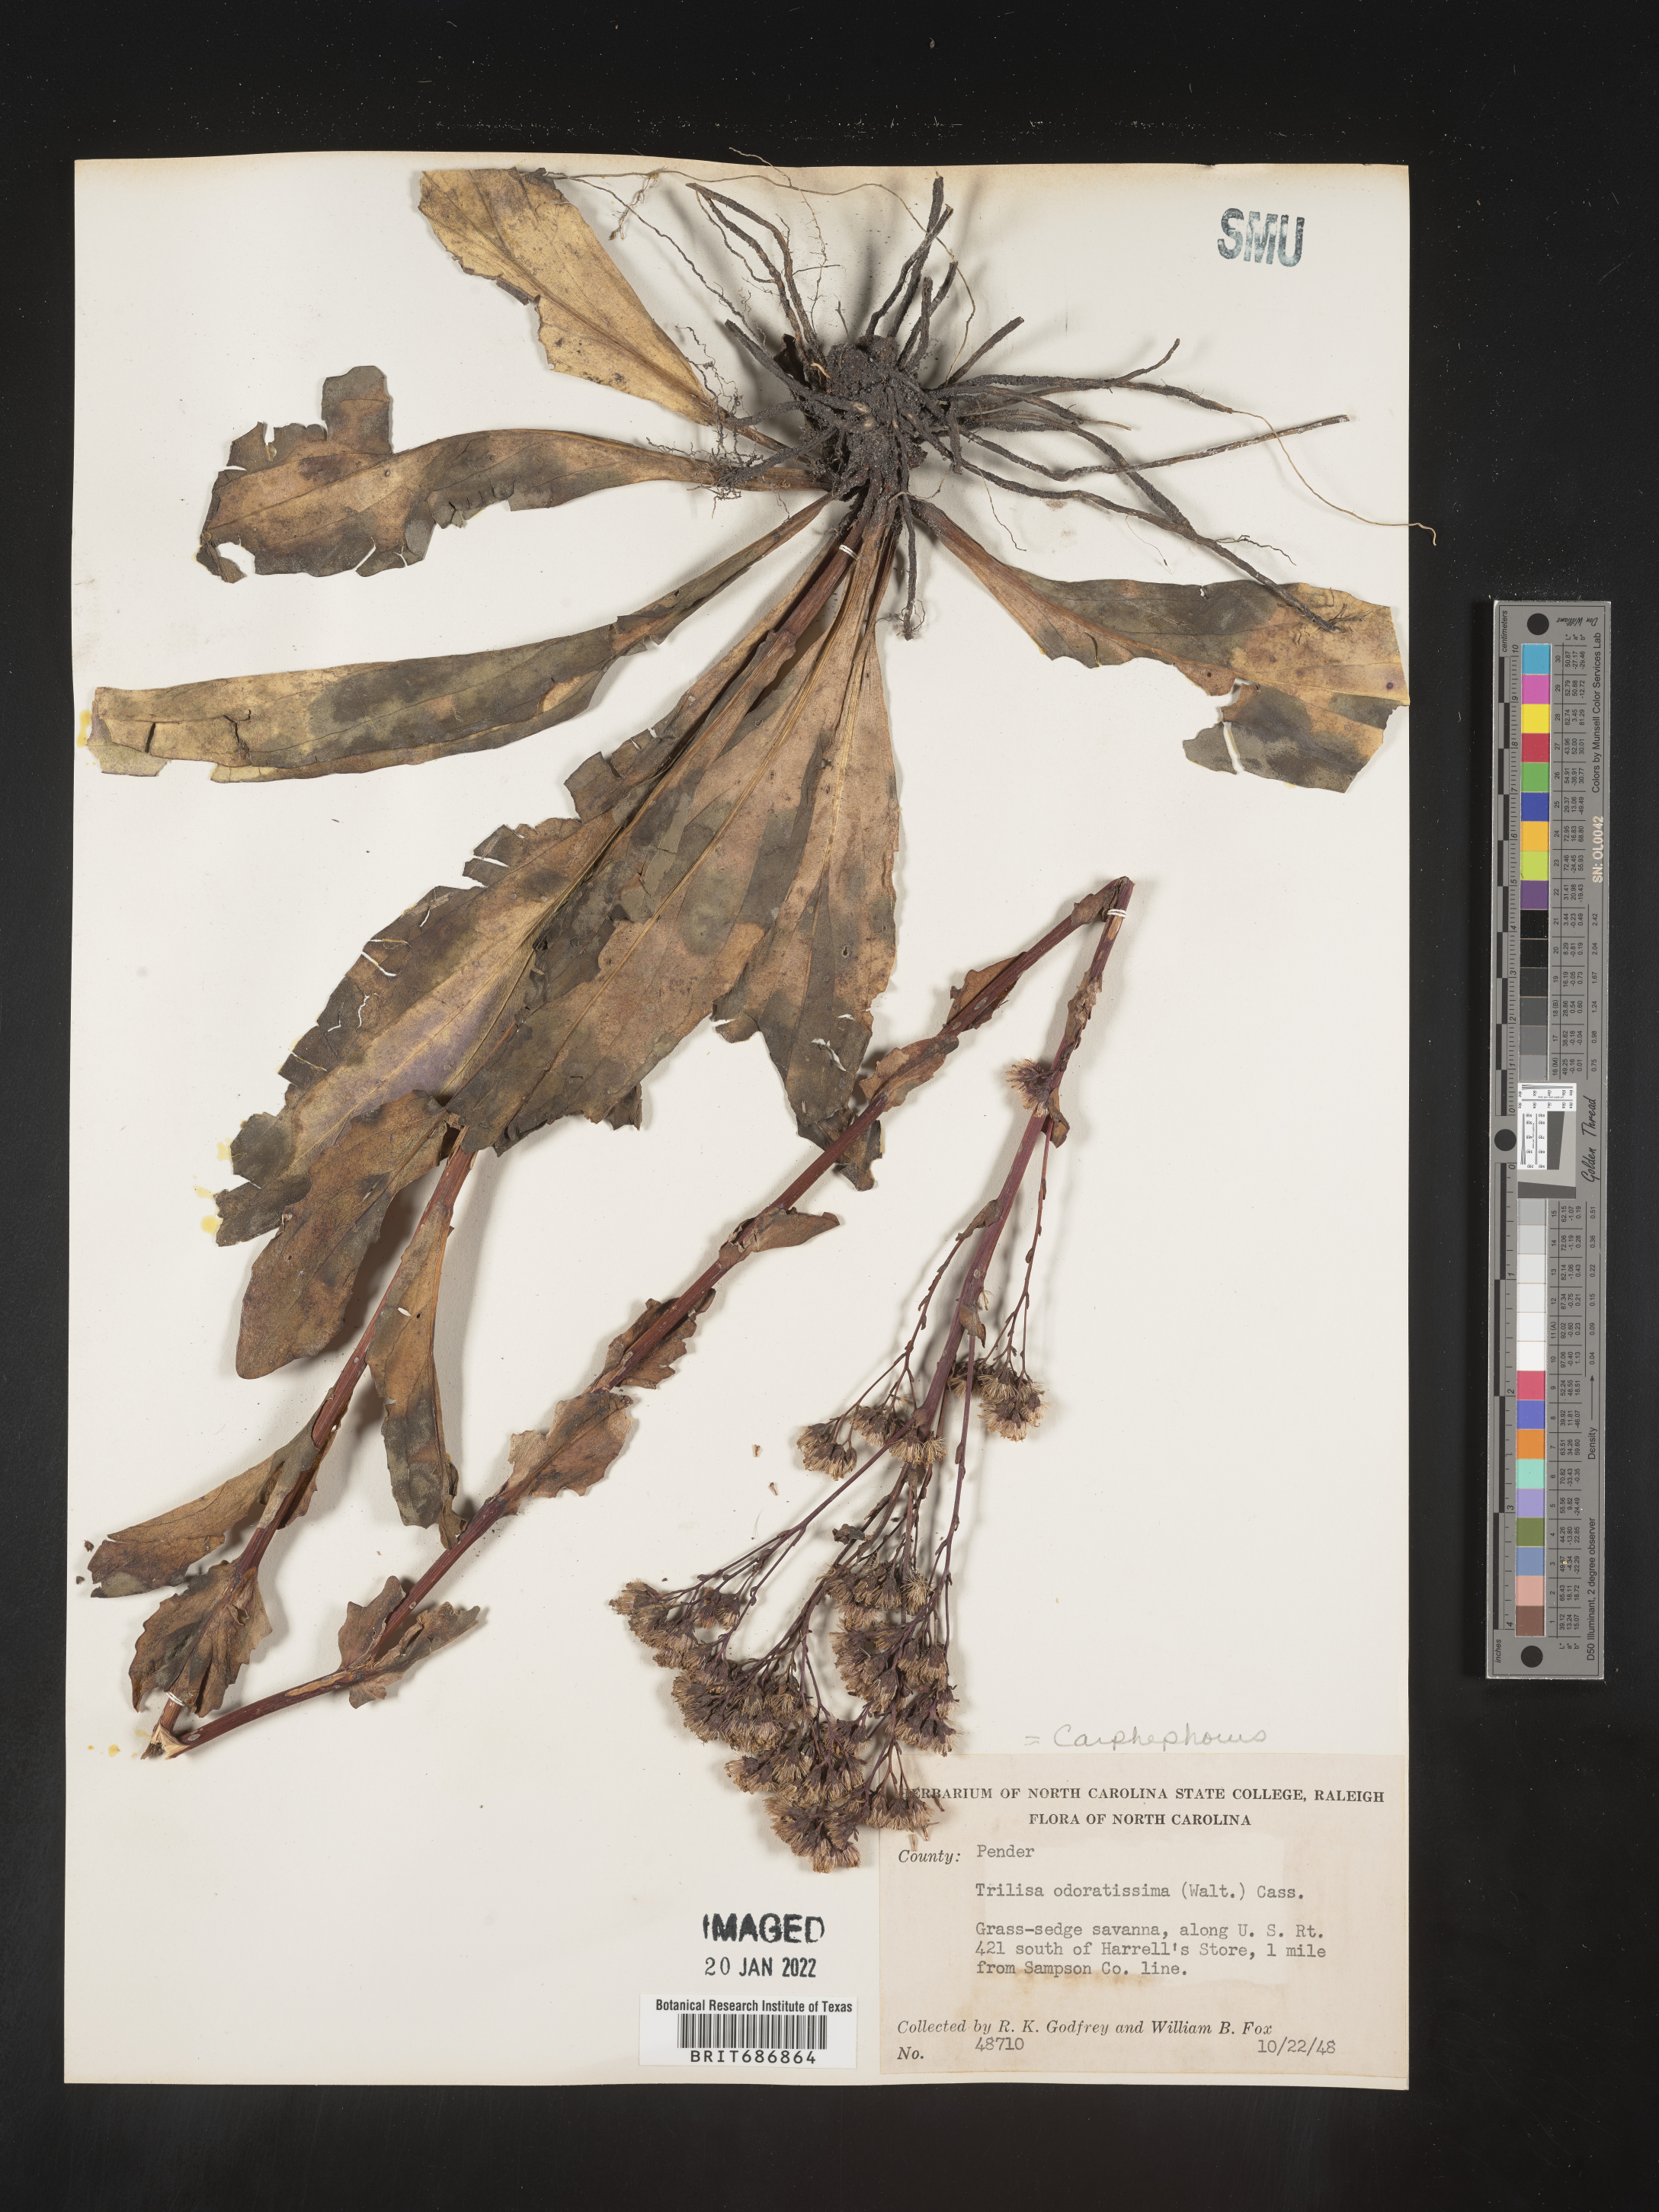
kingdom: Plantae
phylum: Tracheophyta
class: Magnoliopsida
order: Asterales
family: Asteraceae
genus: Carphephorus
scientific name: Carphephorus odoratissimus
